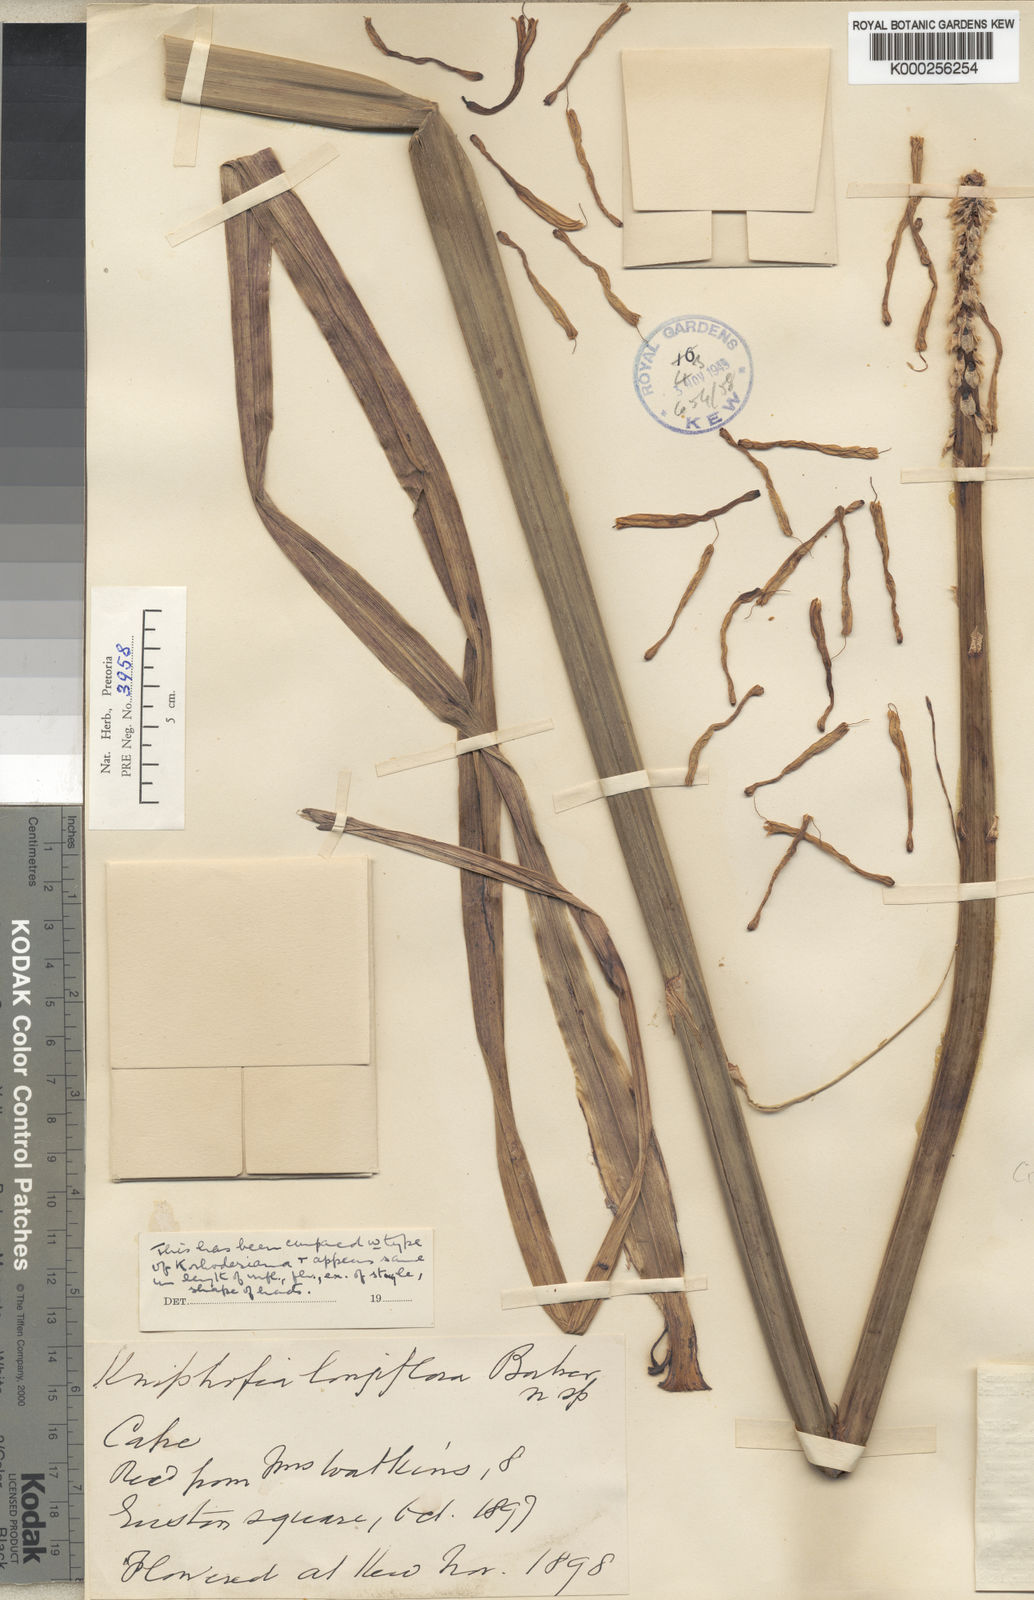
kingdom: Plantae
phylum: Tracheophyta
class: Liliopsida
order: Asparagales
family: Asphodelaceae
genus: Kniphofia
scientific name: Kniphofia linearifolia
